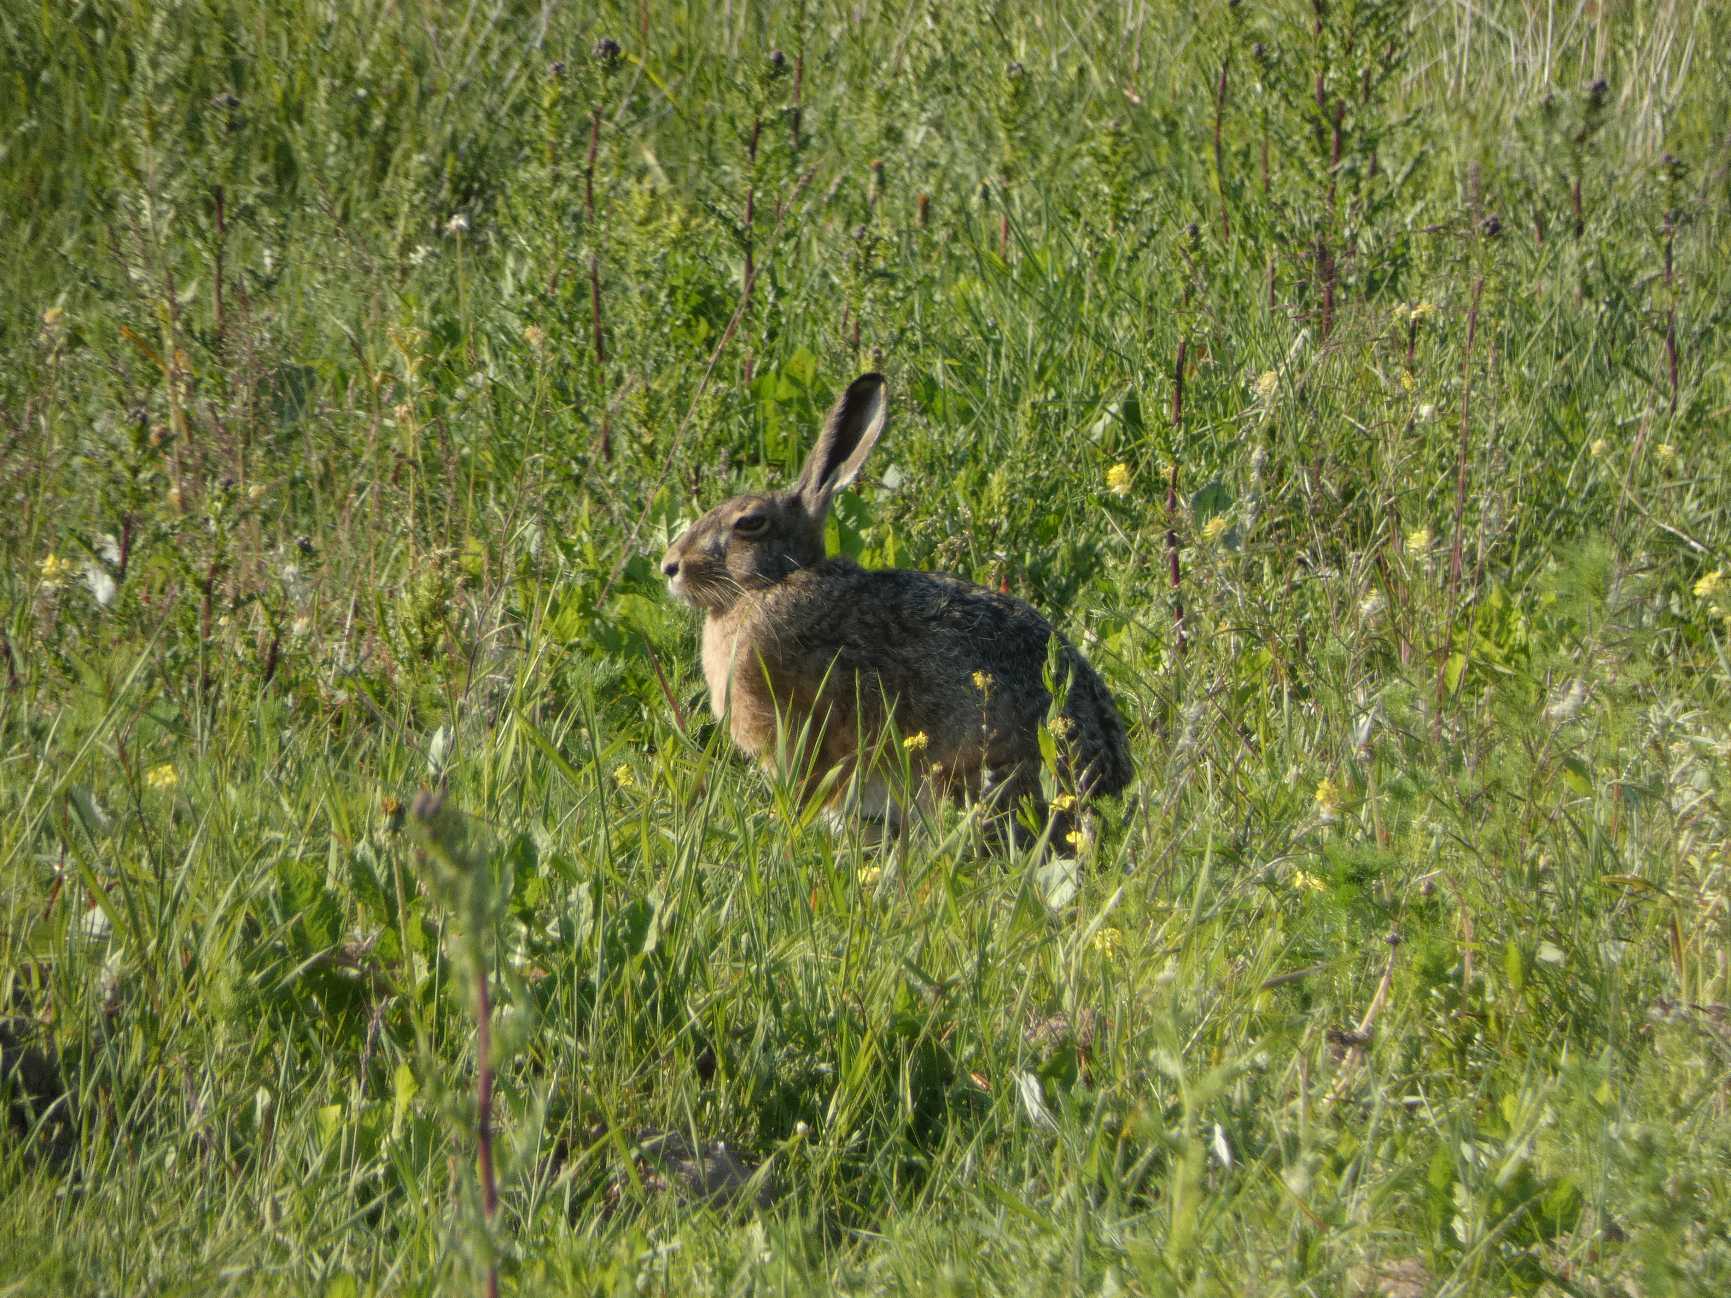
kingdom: Animalia
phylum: Chordata
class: Mammalia
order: Lagomorpha
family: Leporidae
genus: Lepus
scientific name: Lepus europaeus
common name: Hare
